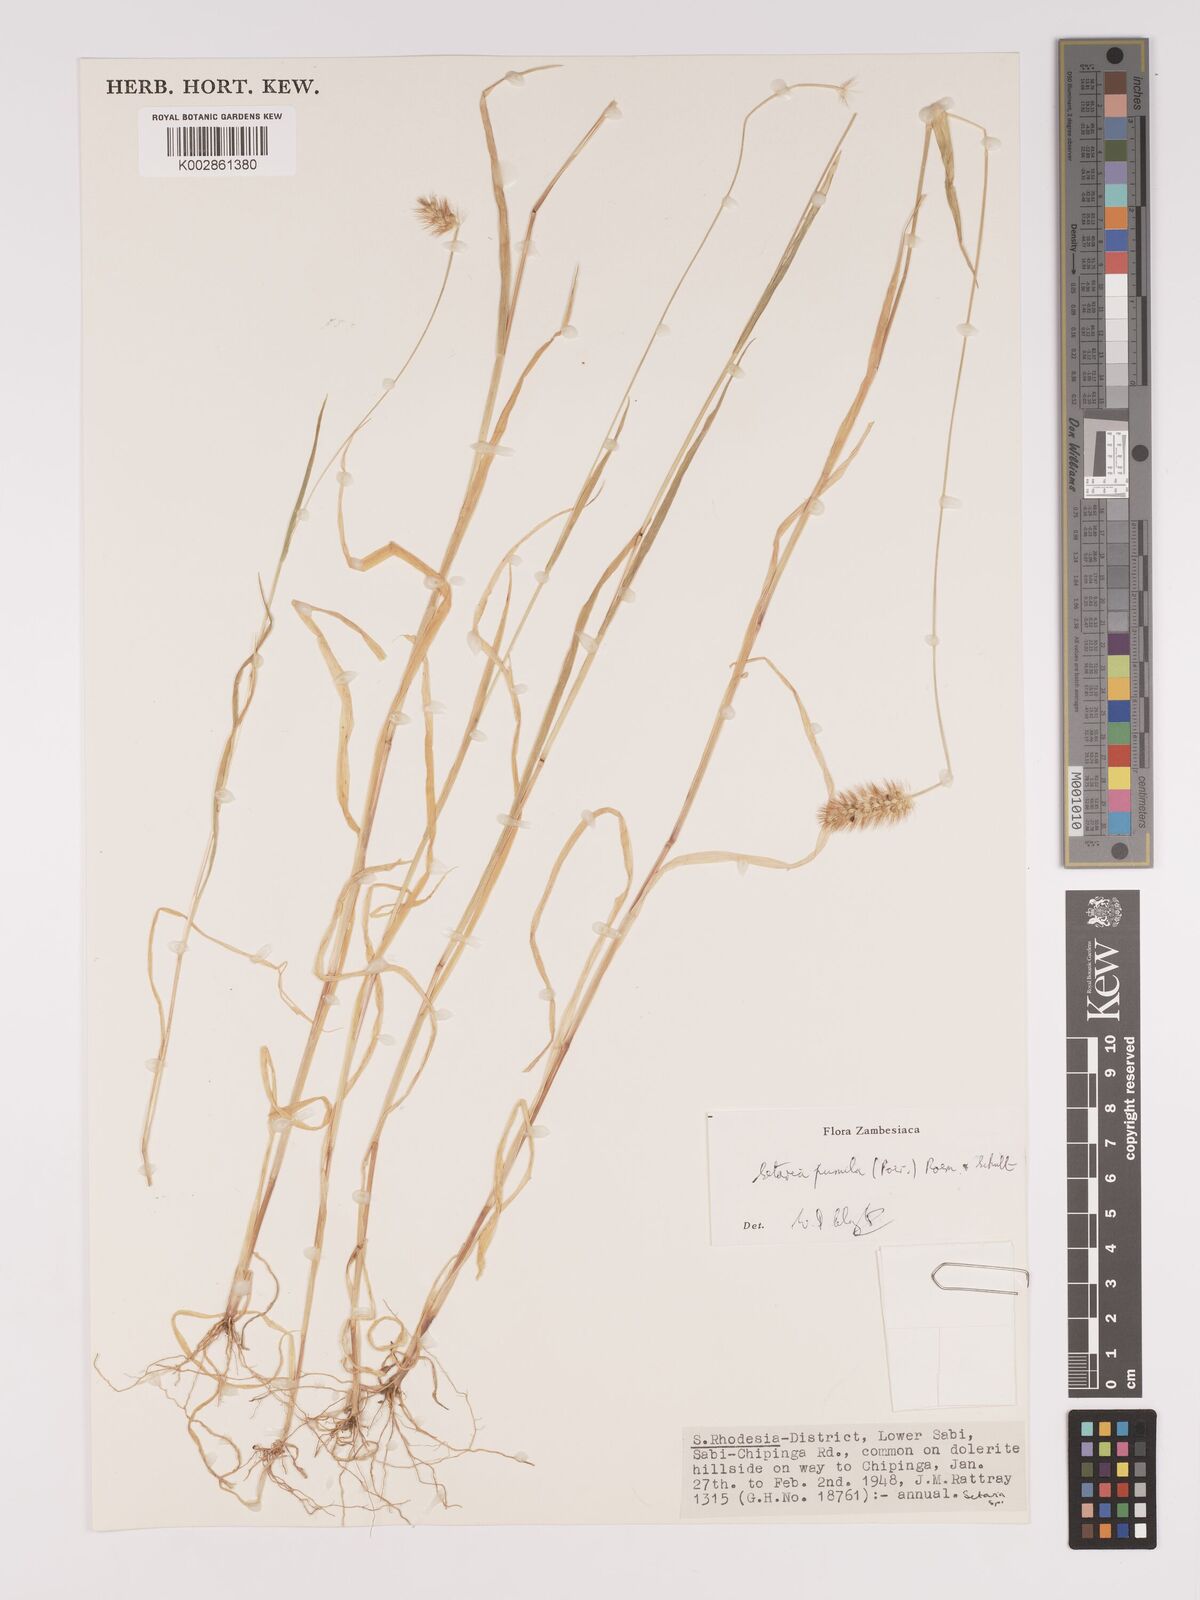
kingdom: Plantae
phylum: Tracheophyta
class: Liliopsida
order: Poales
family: Poaceae
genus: Setaria
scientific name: Setaria pumila
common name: Yellow bristle-grass
